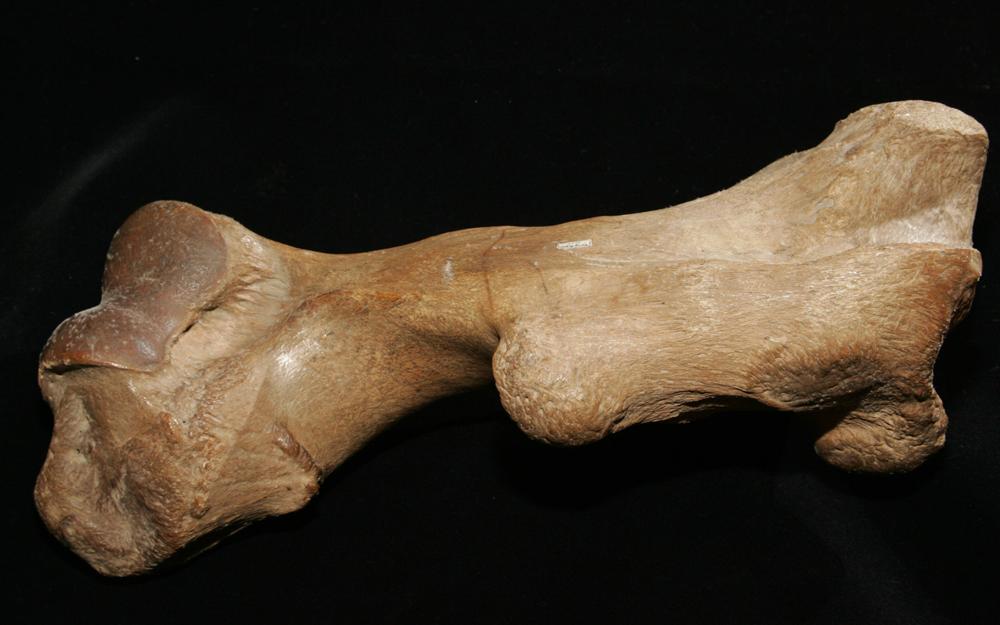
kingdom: Animalia
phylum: Chordata
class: Mammalia
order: Perissodactyla
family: Rhinocerotidae
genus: Coelodonta
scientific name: Coelodonta antiquitatis
